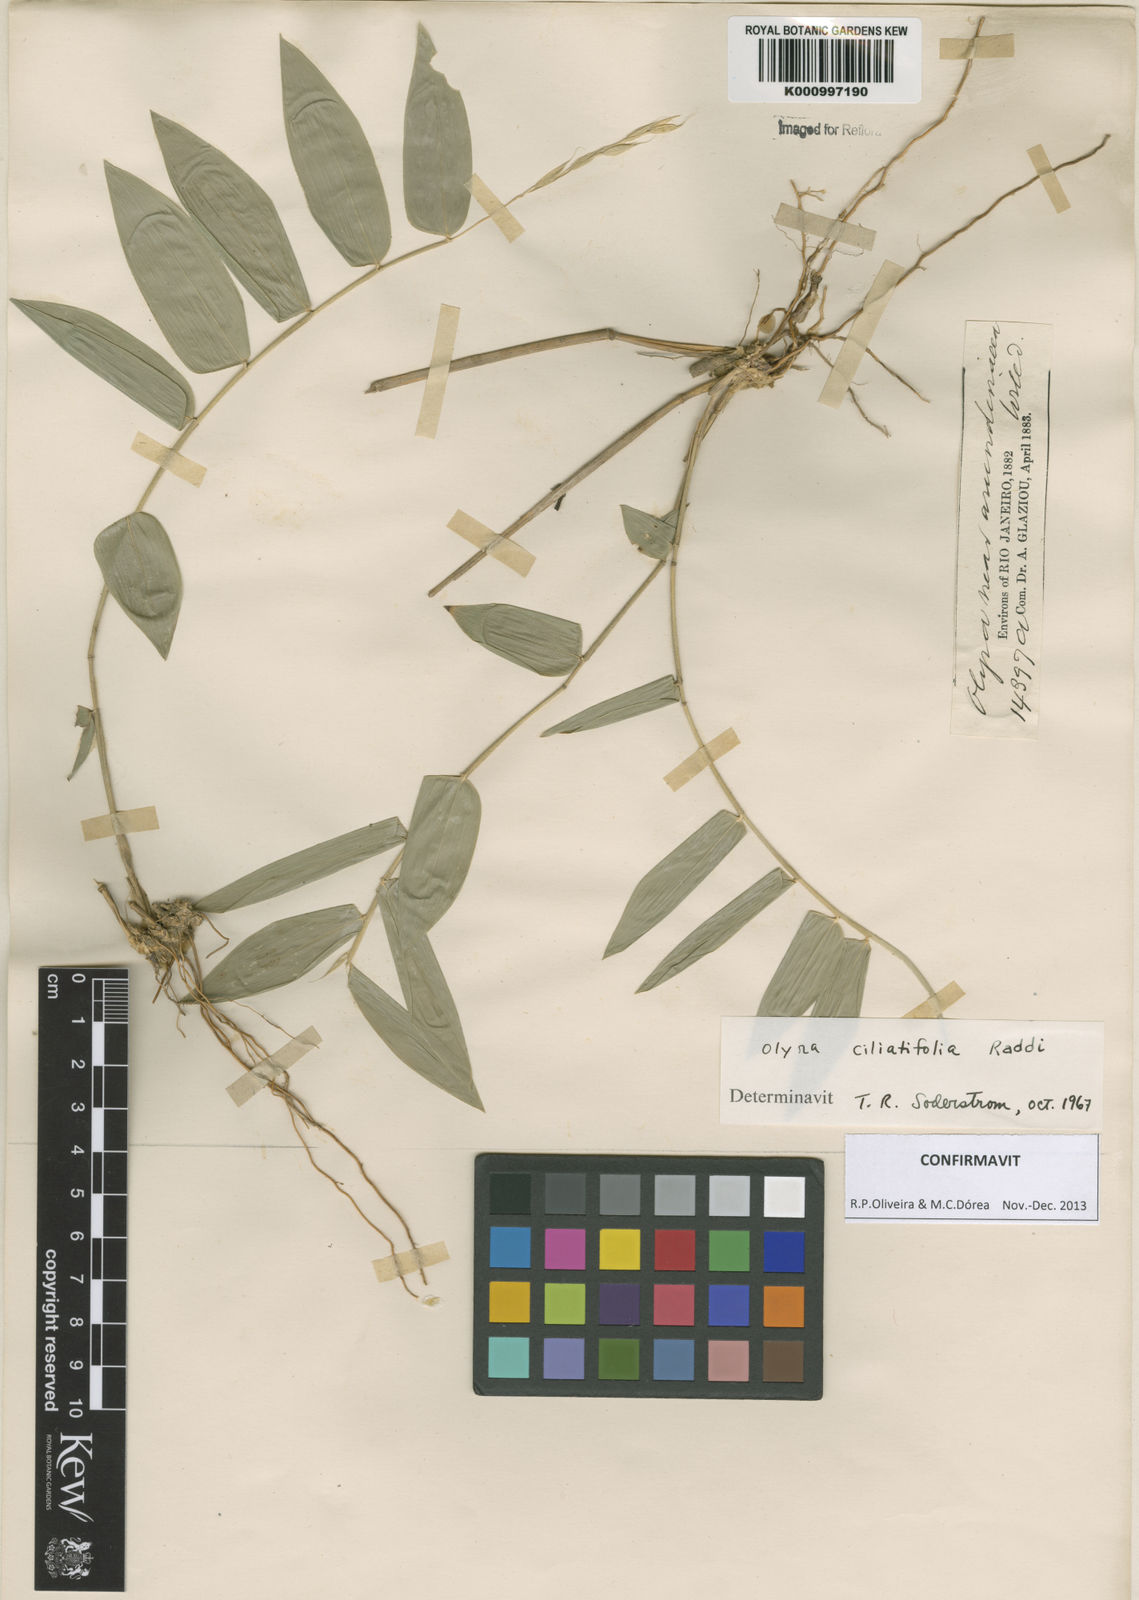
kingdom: Plantae
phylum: Tracheophyta
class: Liliopsida
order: Poales
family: Poaceae
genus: Olyra
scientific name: Olyra ciliatifolia
